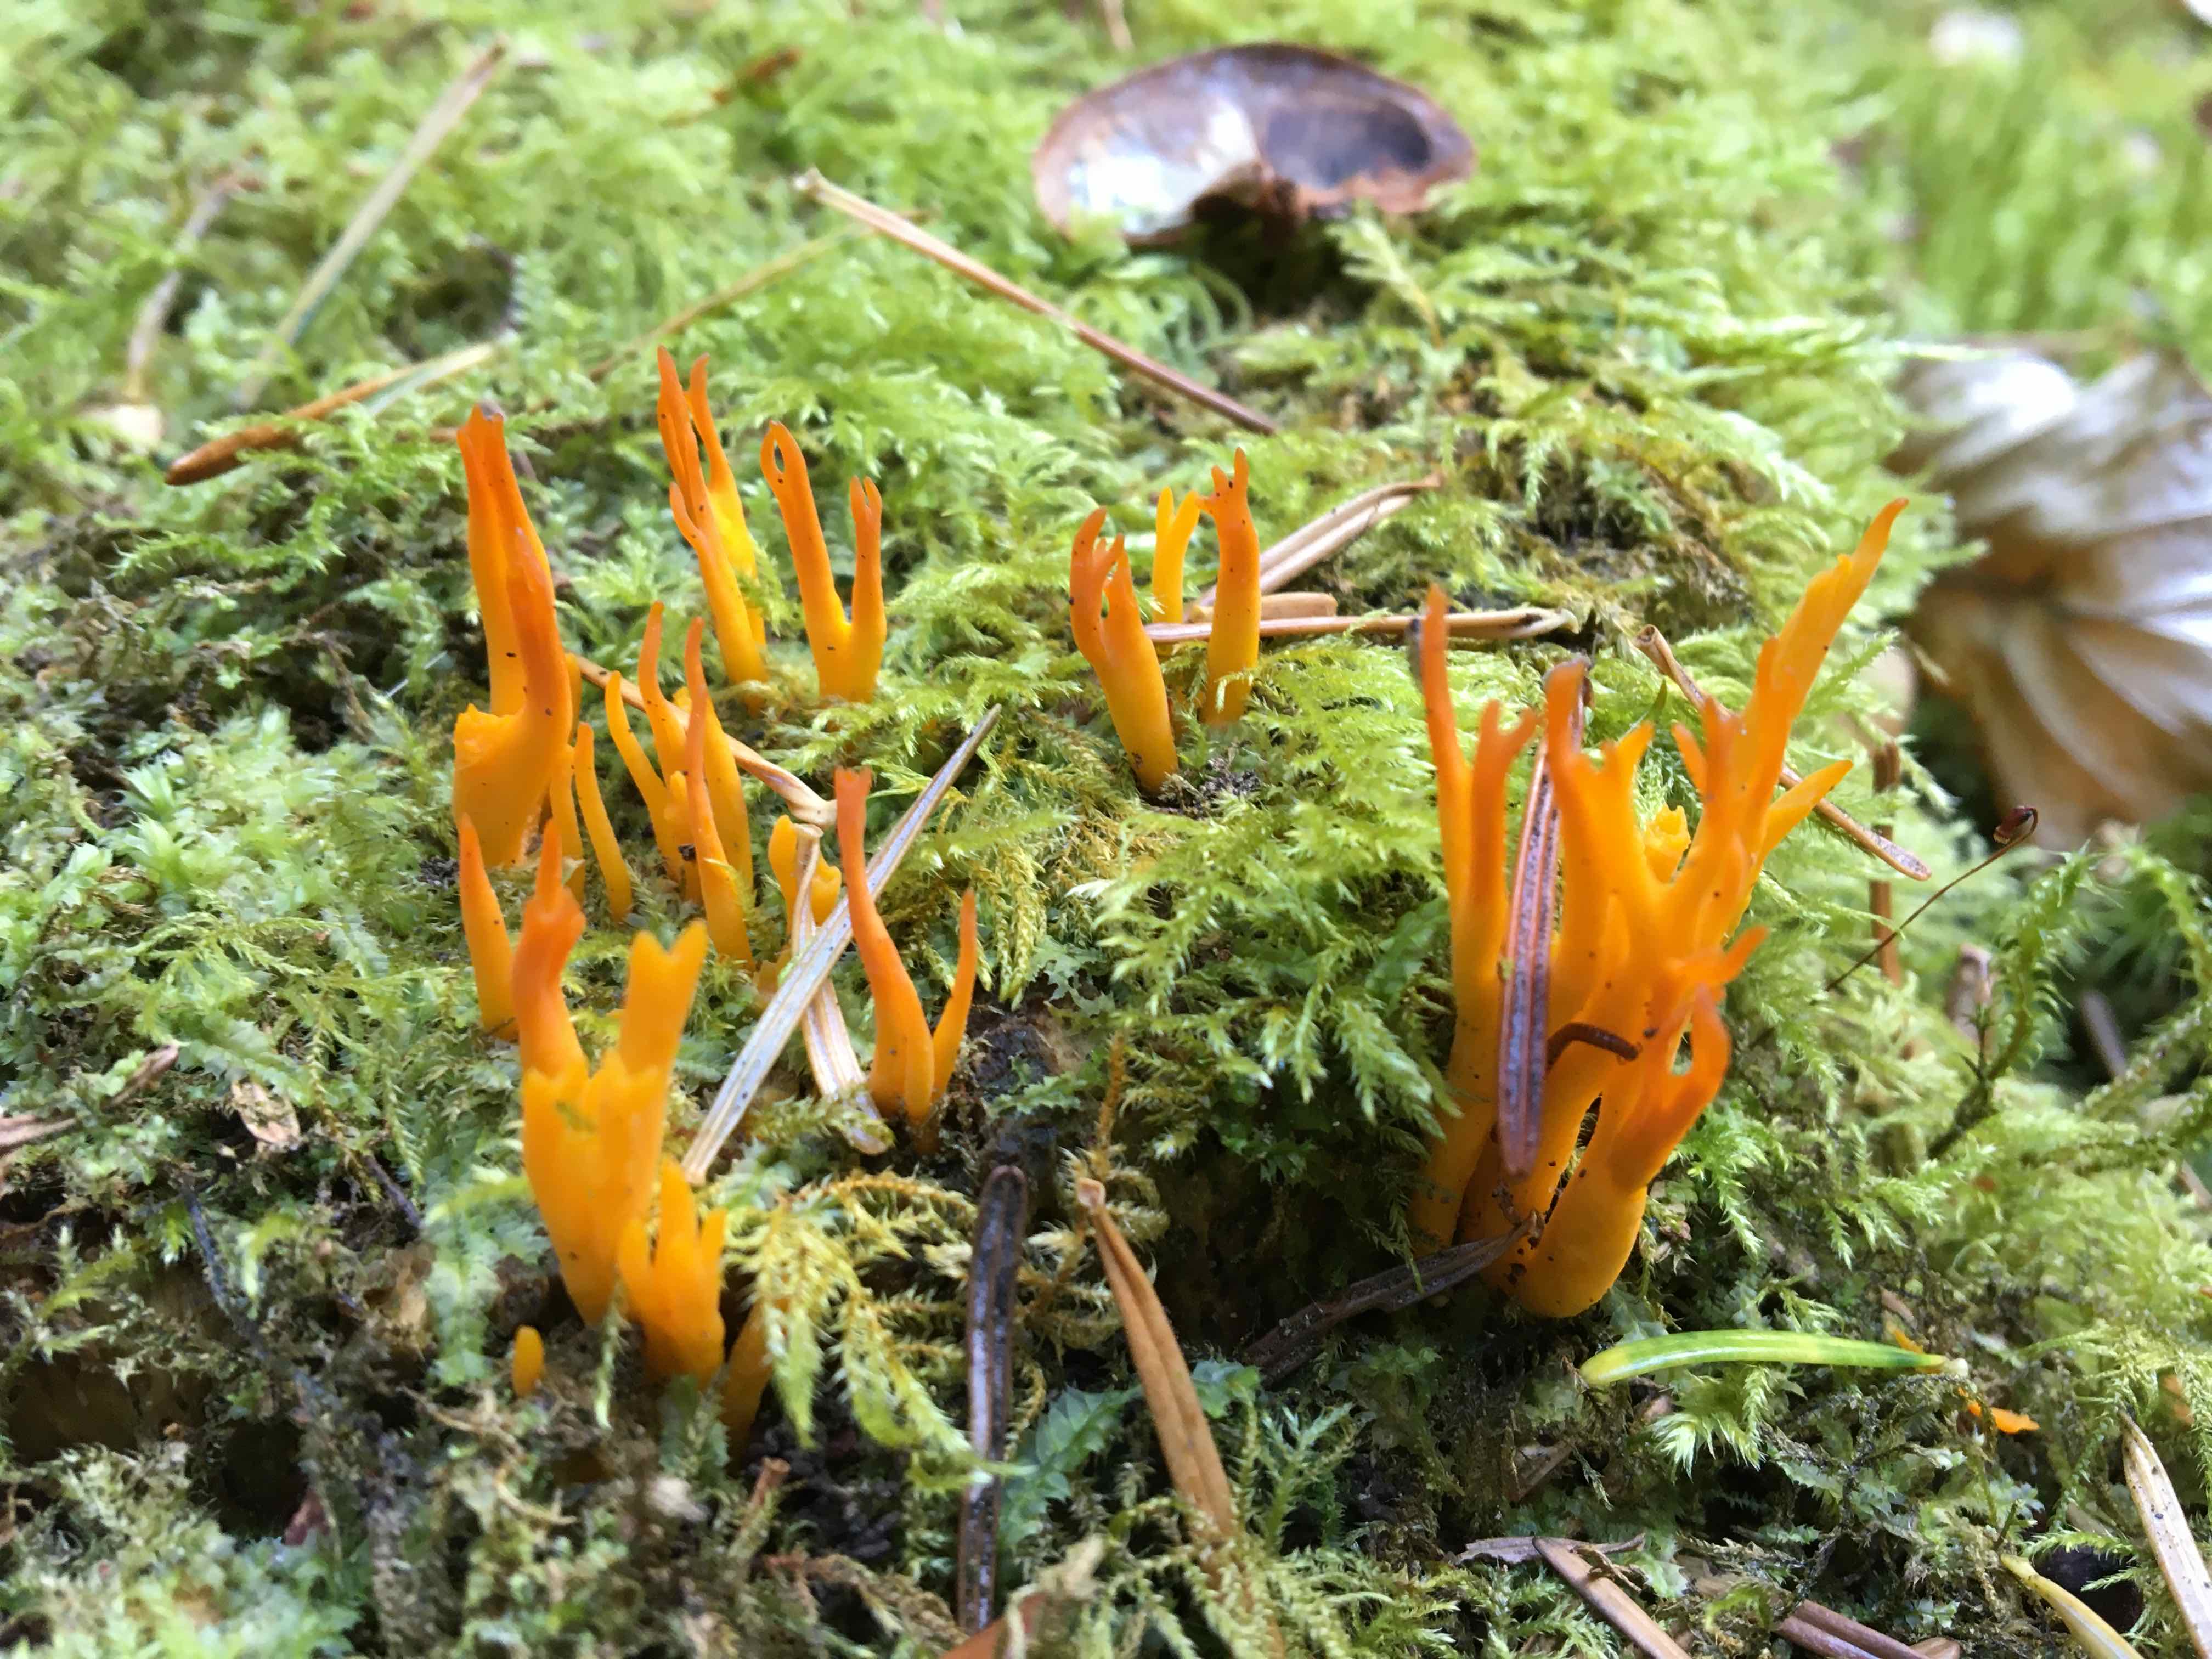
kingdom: Fungi
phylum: Basidiomycota
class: Dacrymycetes
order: Dacrymycetales
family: Dacrymycetaceae
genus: Calocera
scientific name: Calocera viscosa
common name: almindelig guldgaffel
